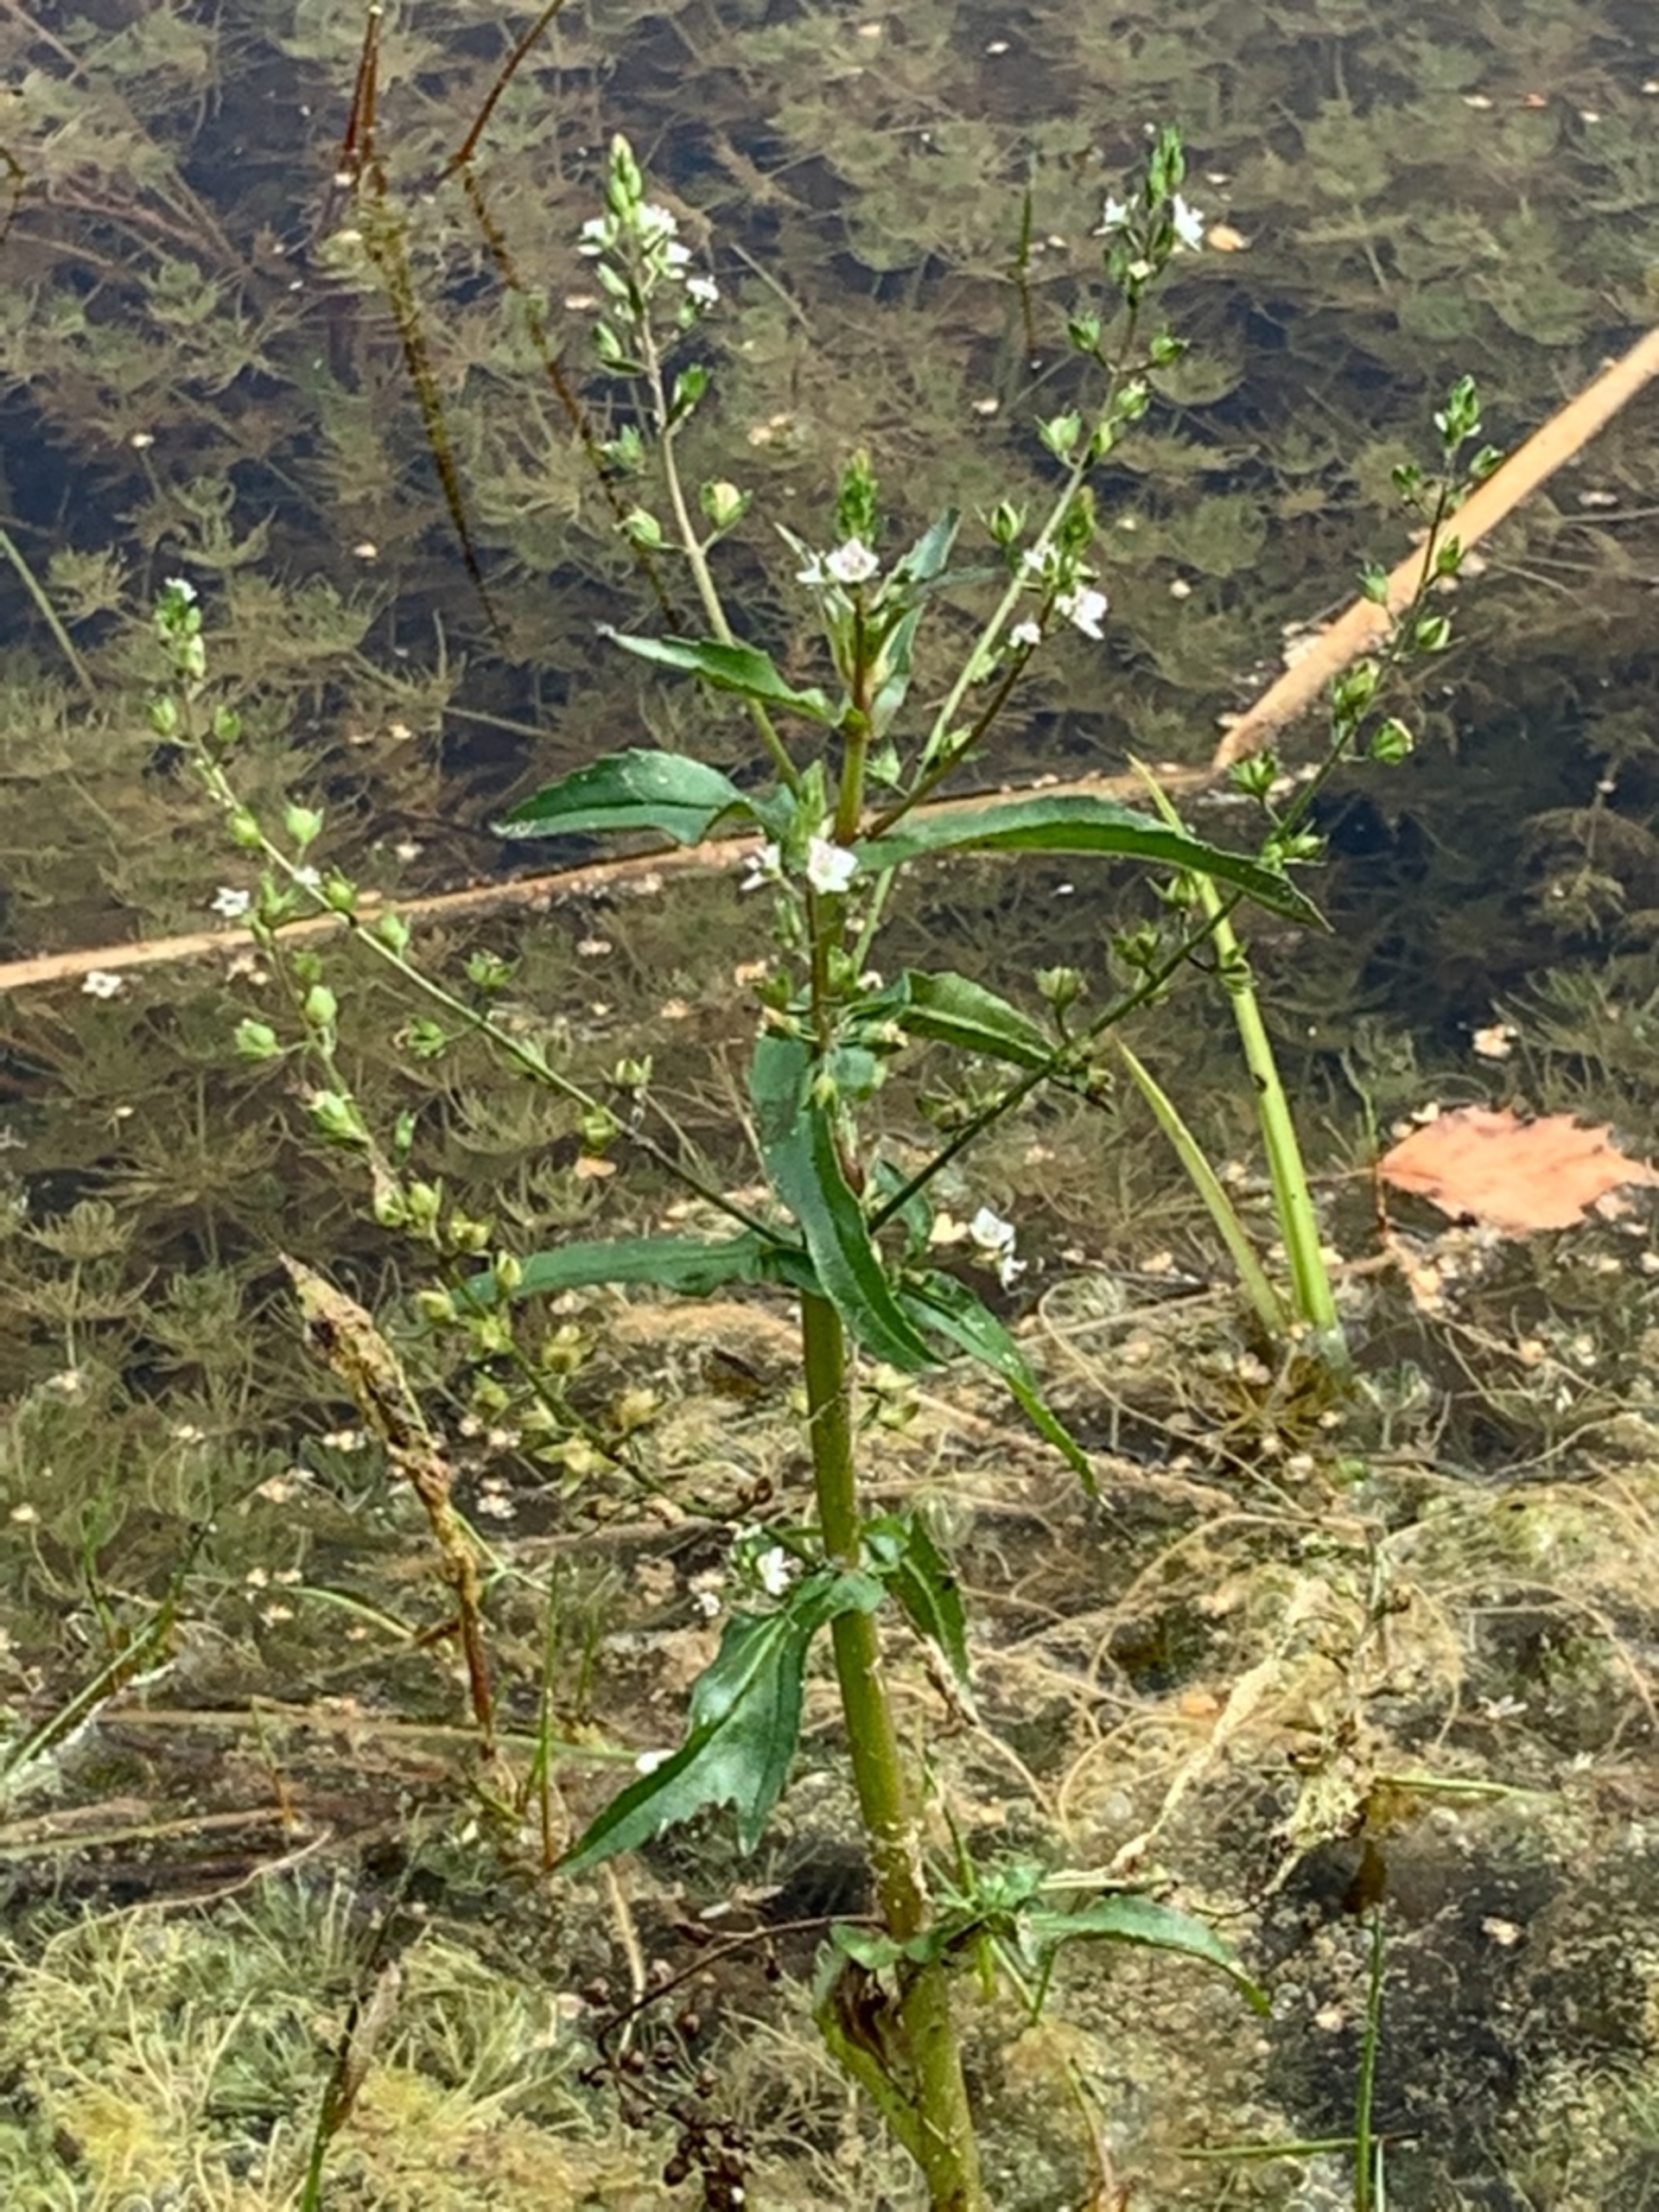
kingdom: Plantae
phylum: Tracheophyta
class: Magnoliopsida
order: Lamiales
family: Plantaginaceae
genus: Veronica
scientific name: Veronica anagallis-aquatica
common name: Lancetbladet ærenpris
